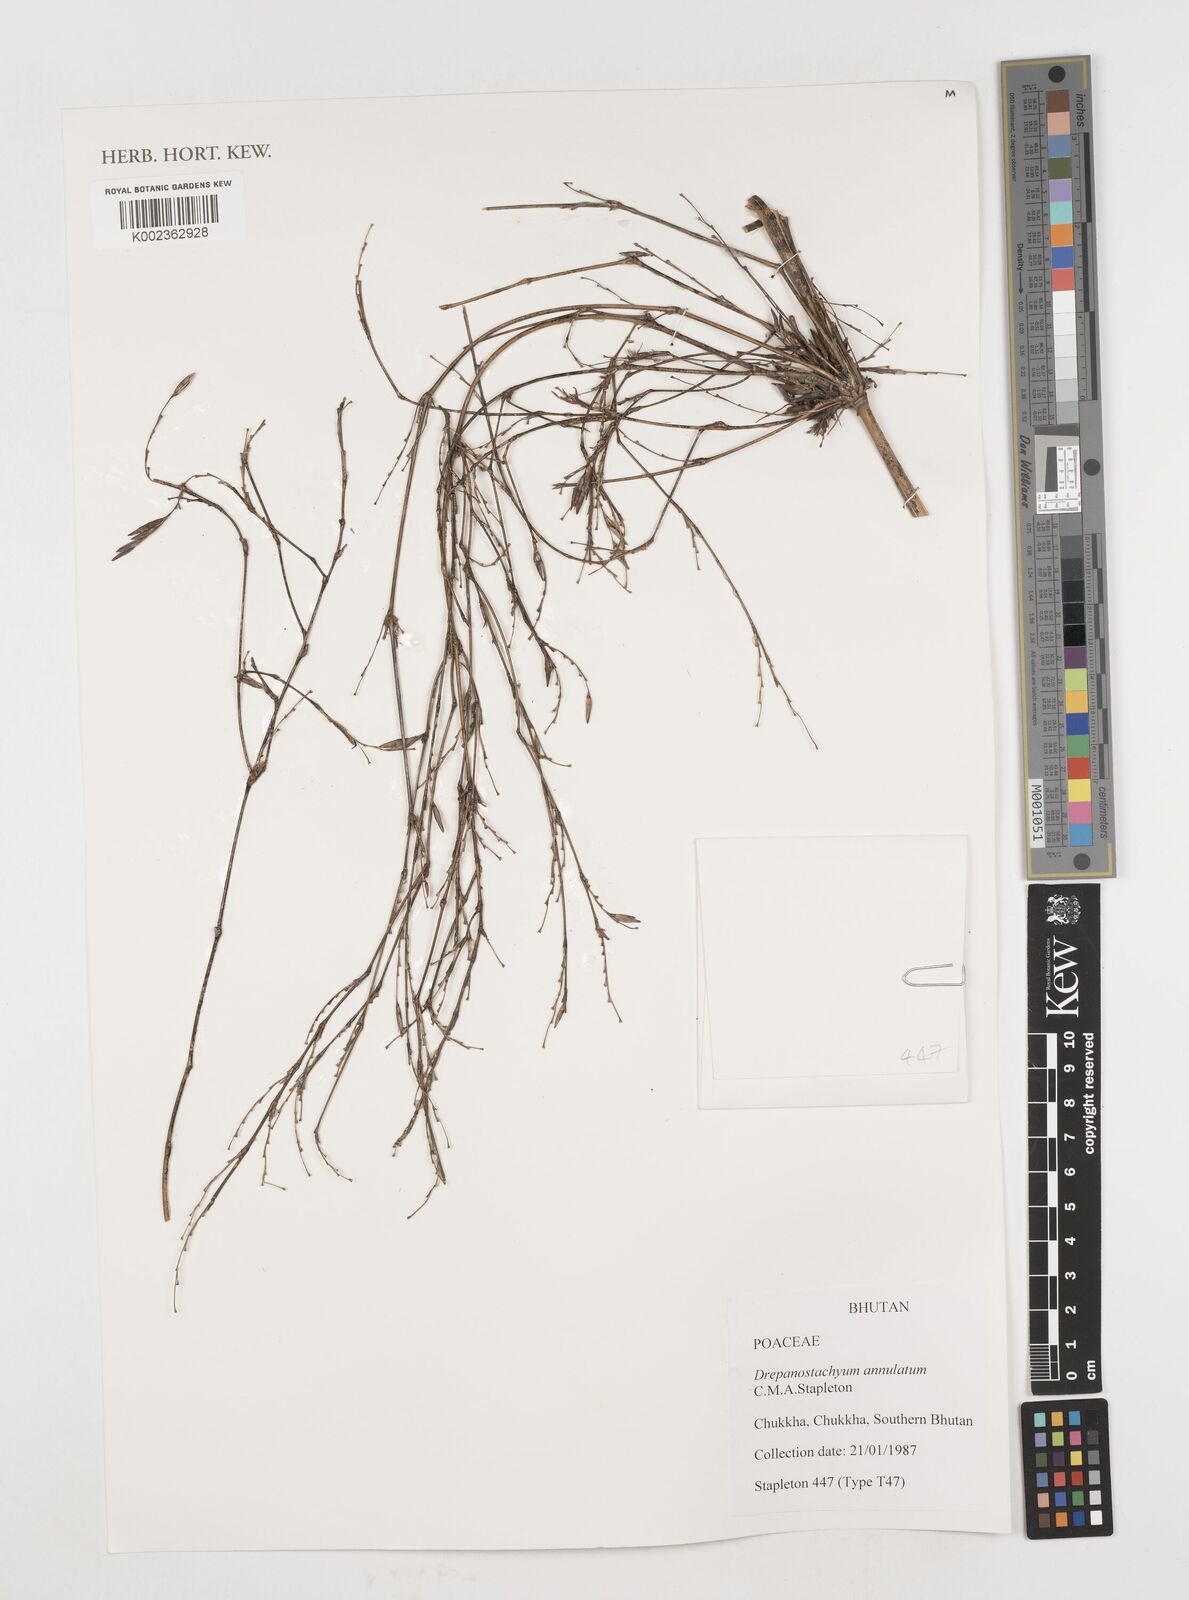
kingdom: Plantae
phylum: Tracheophyta
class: Liliopsida
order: Poales
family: Poaceae
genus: Drepanostachyum
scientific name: Drepanostachyum annulatum
